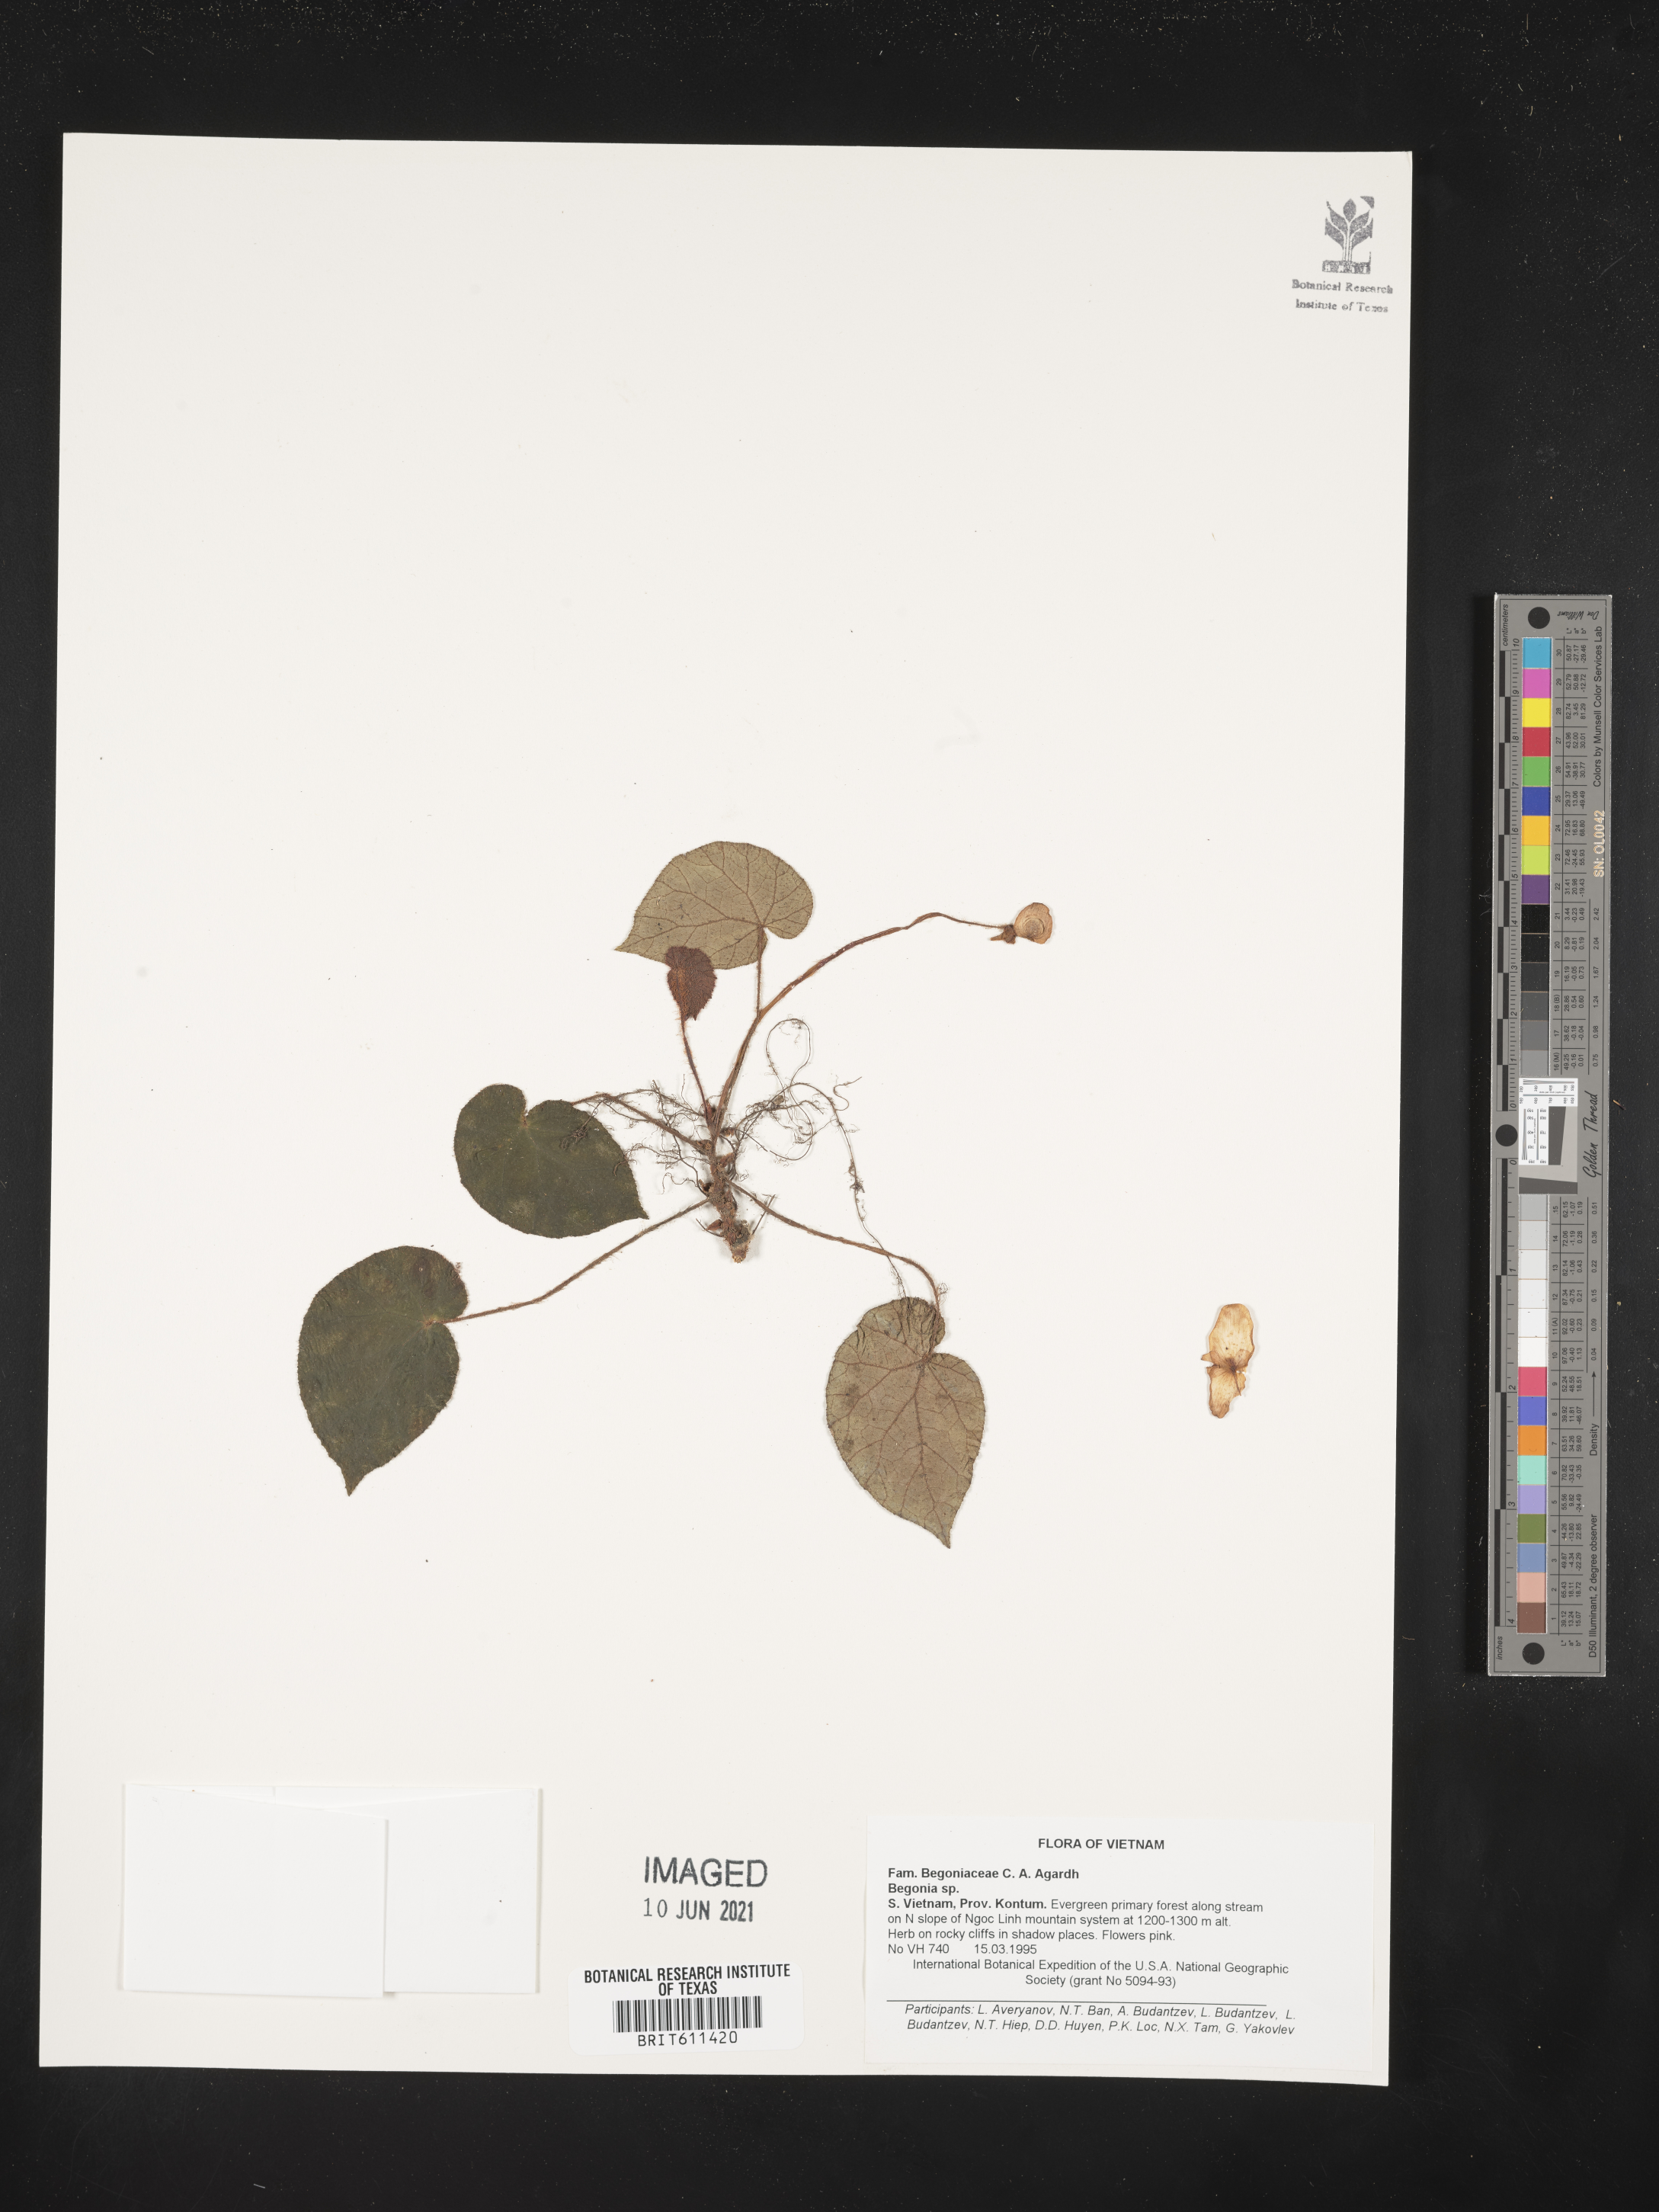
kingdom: Plantae
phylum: Tracheophyta
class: Magnoliopsida
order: Cucurbitales
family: Begoniaceae
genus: Begonia
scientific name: Begonia
